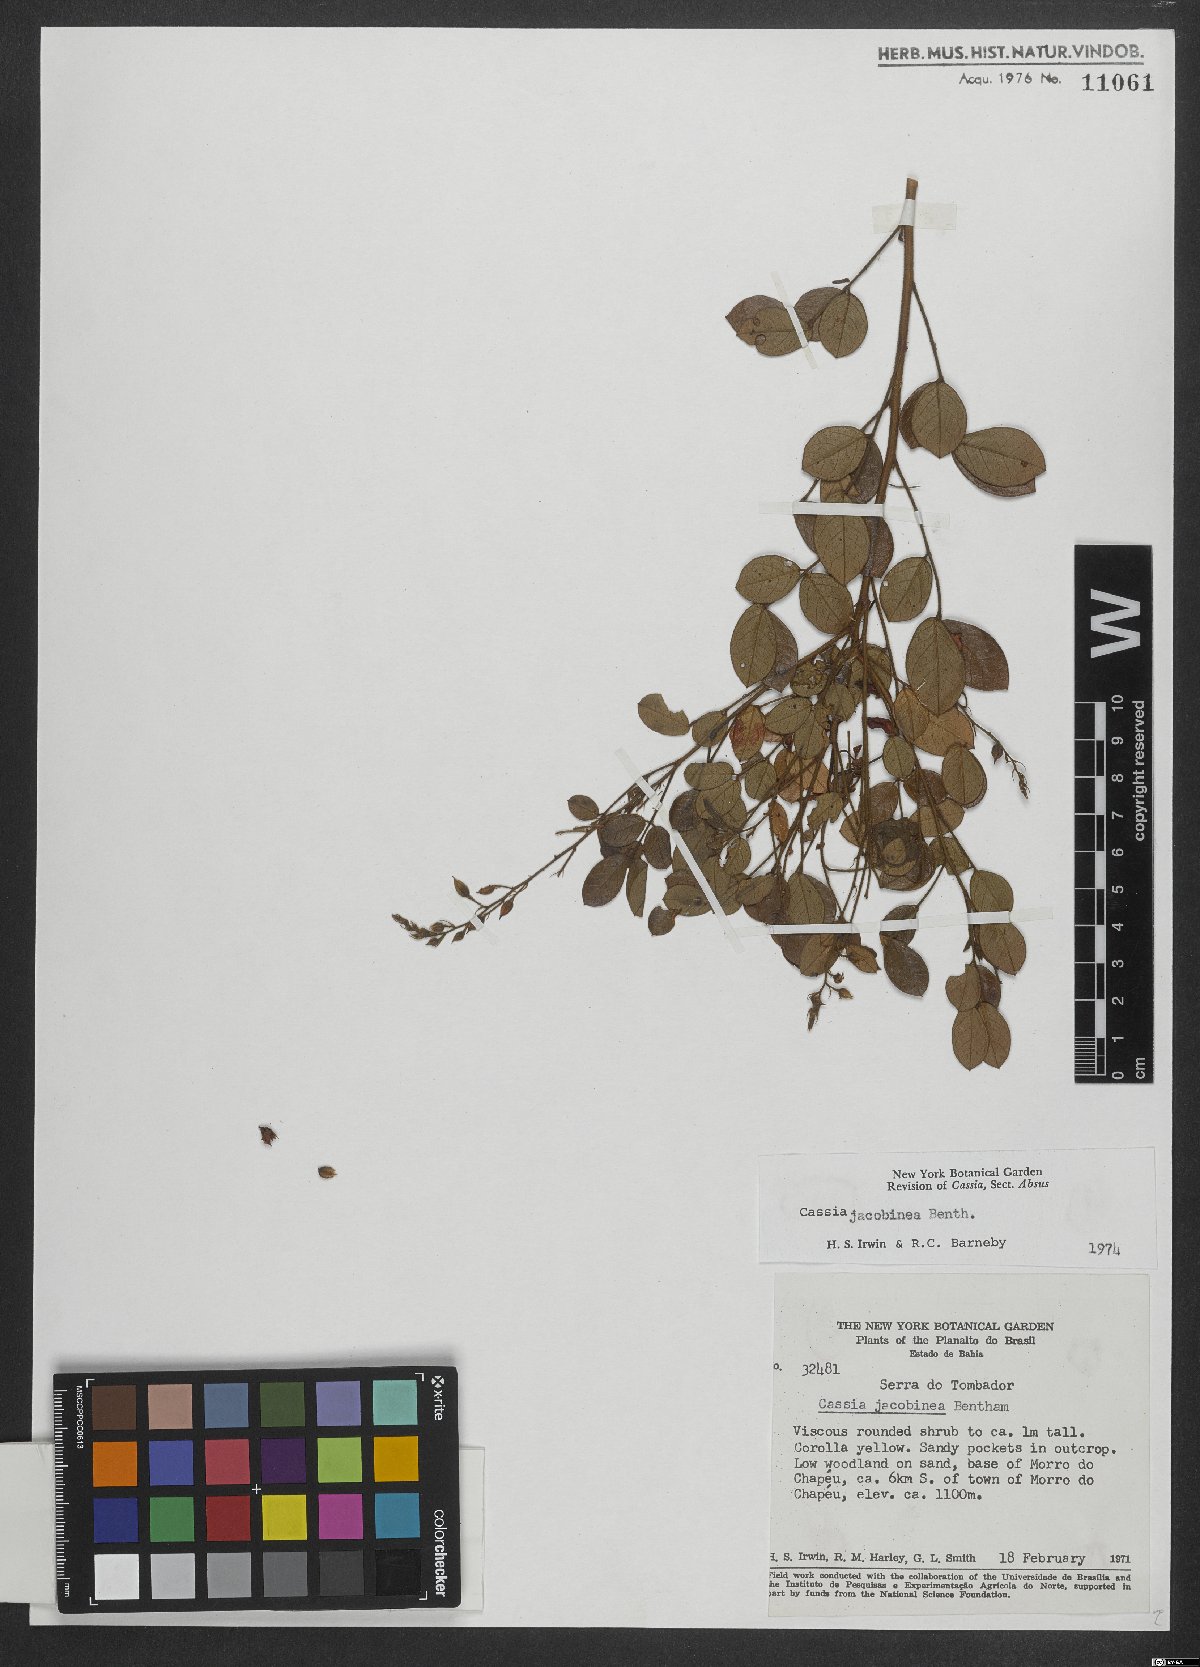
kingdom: Plantae
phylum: Tracheophyta
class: Magnoliopsida
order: Fabales
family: Fabaceae
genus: Chamaecrista
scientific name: Chamaecrista jacobinea
